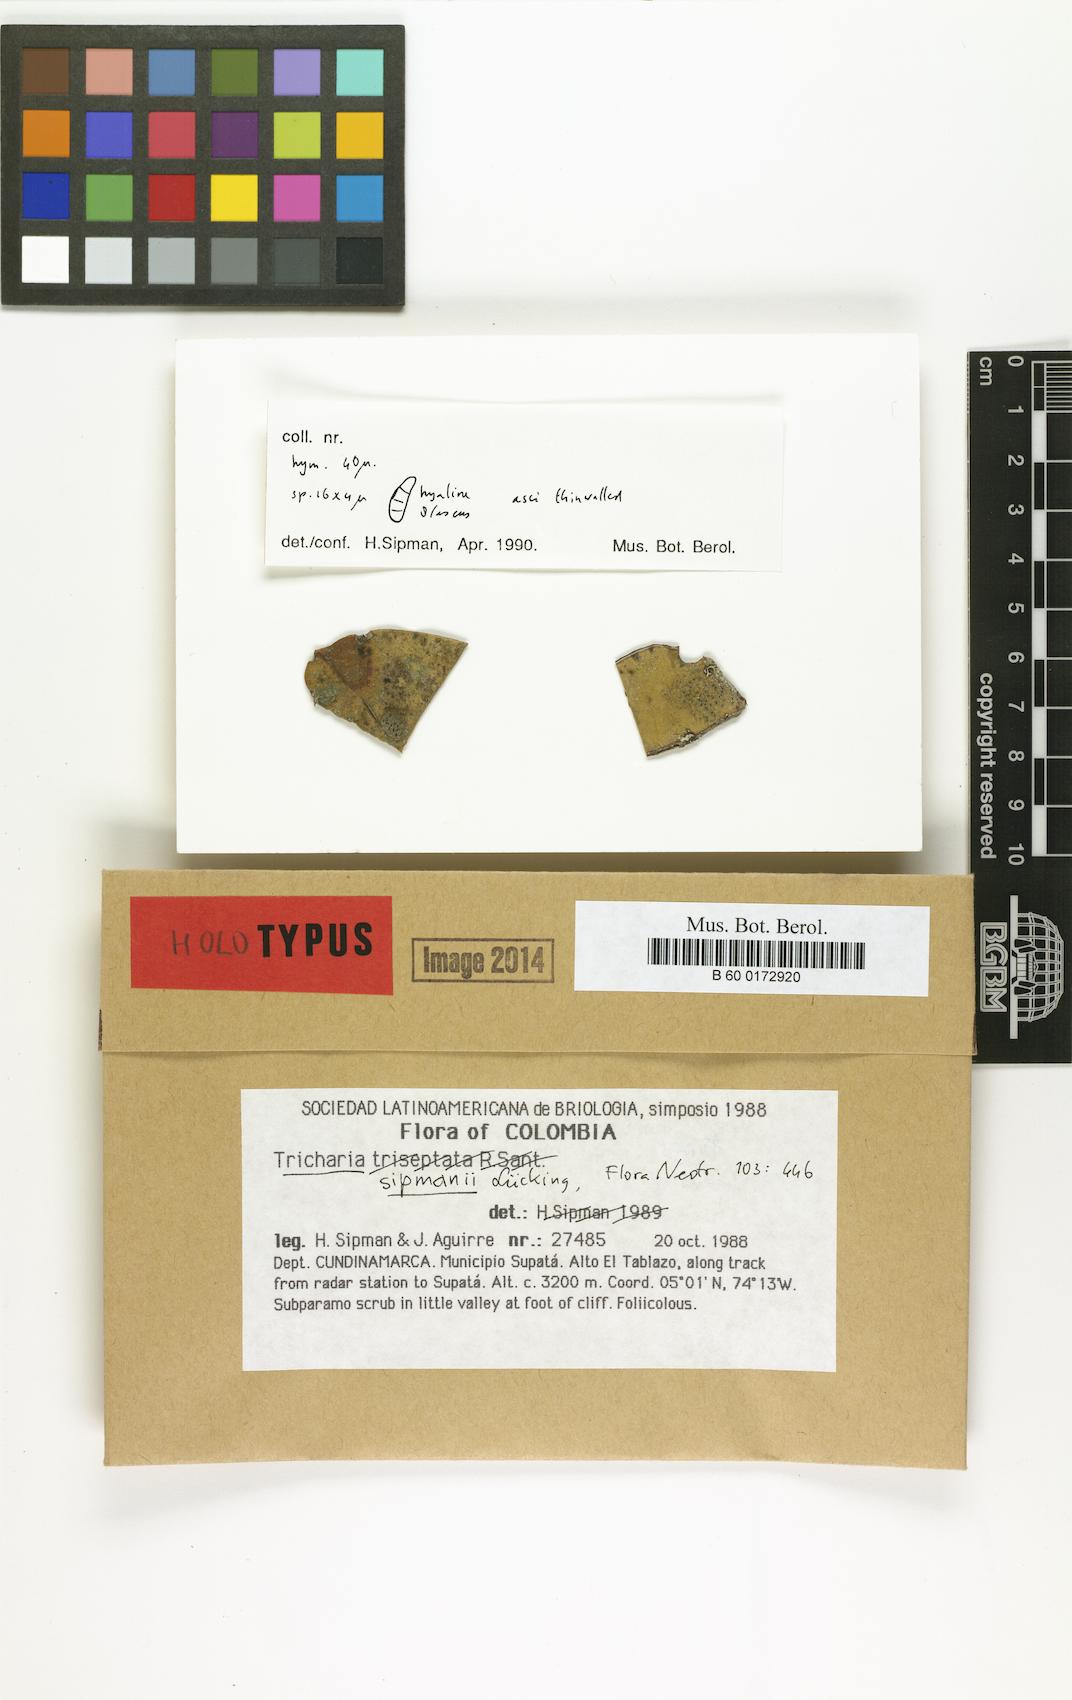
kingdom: Fungi
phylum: Ascomycota
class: Lecanoromycetes
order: Ostropales
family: Gomphillaceae
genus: Tricharia
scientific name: Tricharia sipmanii
